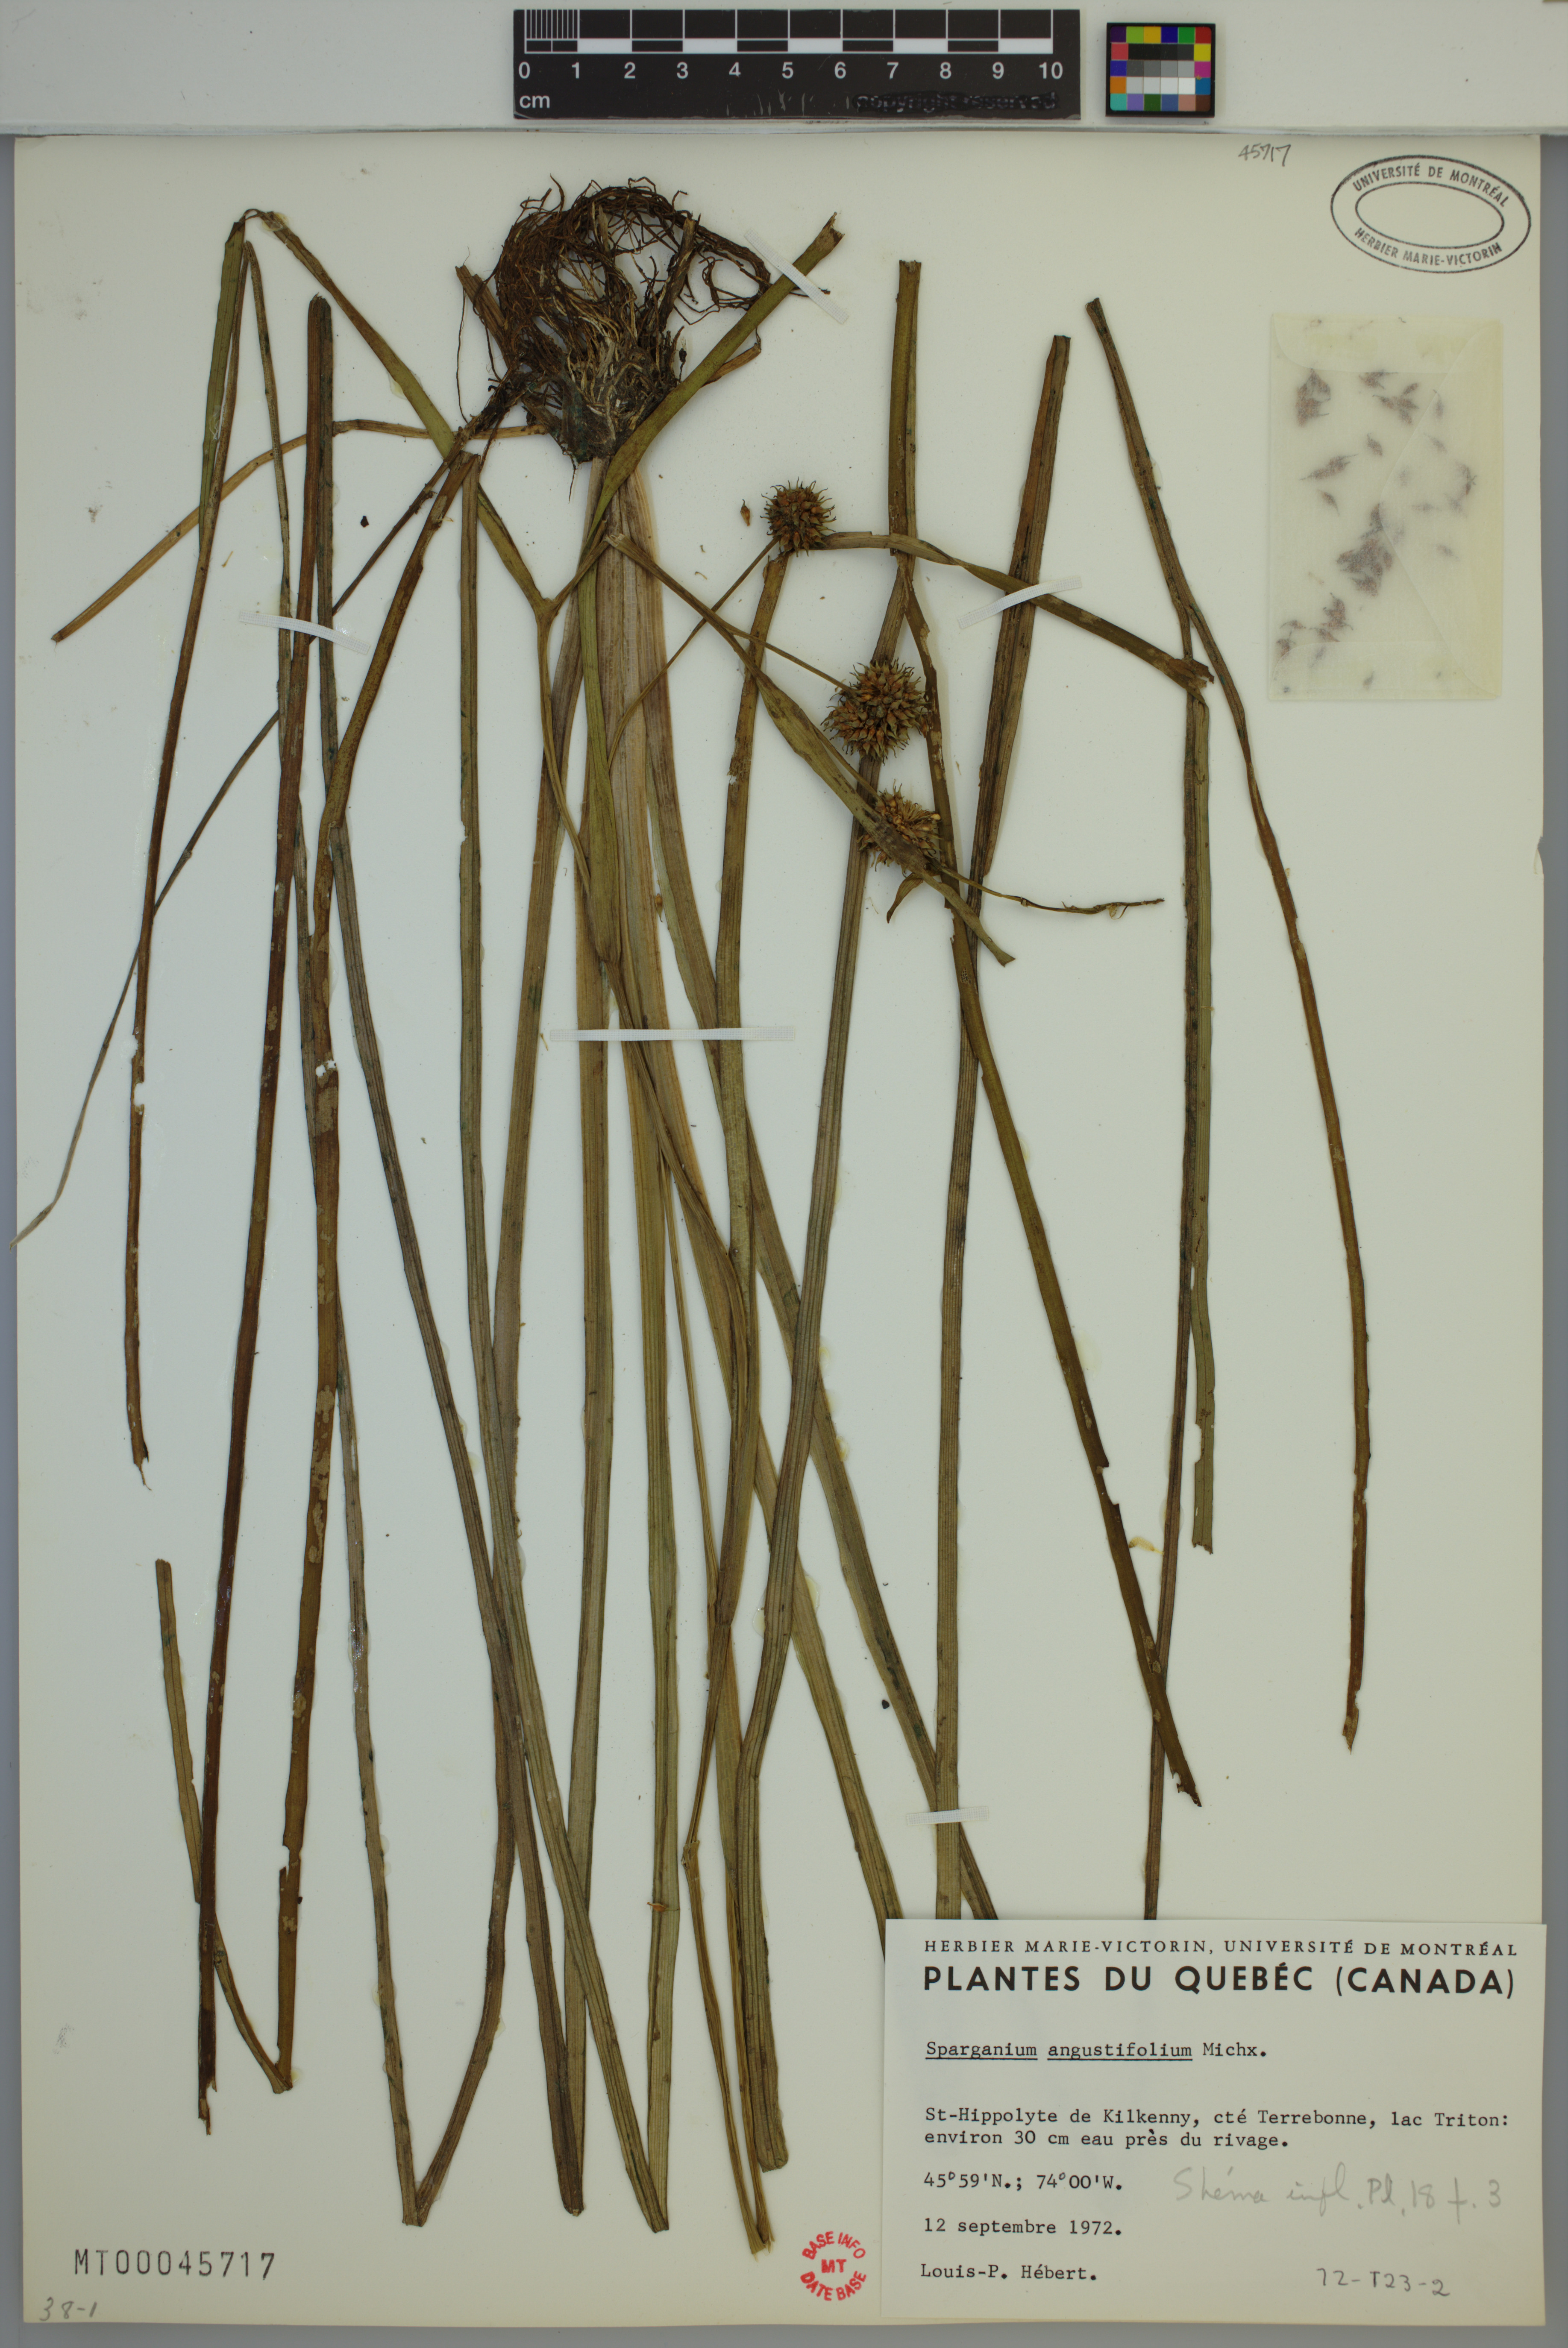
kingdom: Plantae
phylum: Tracheophyta
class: Liliopsida
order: Poales
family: Typhaceae
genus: Sparganium
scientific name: Sparganium angustifolium
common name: Floating bur-reed
